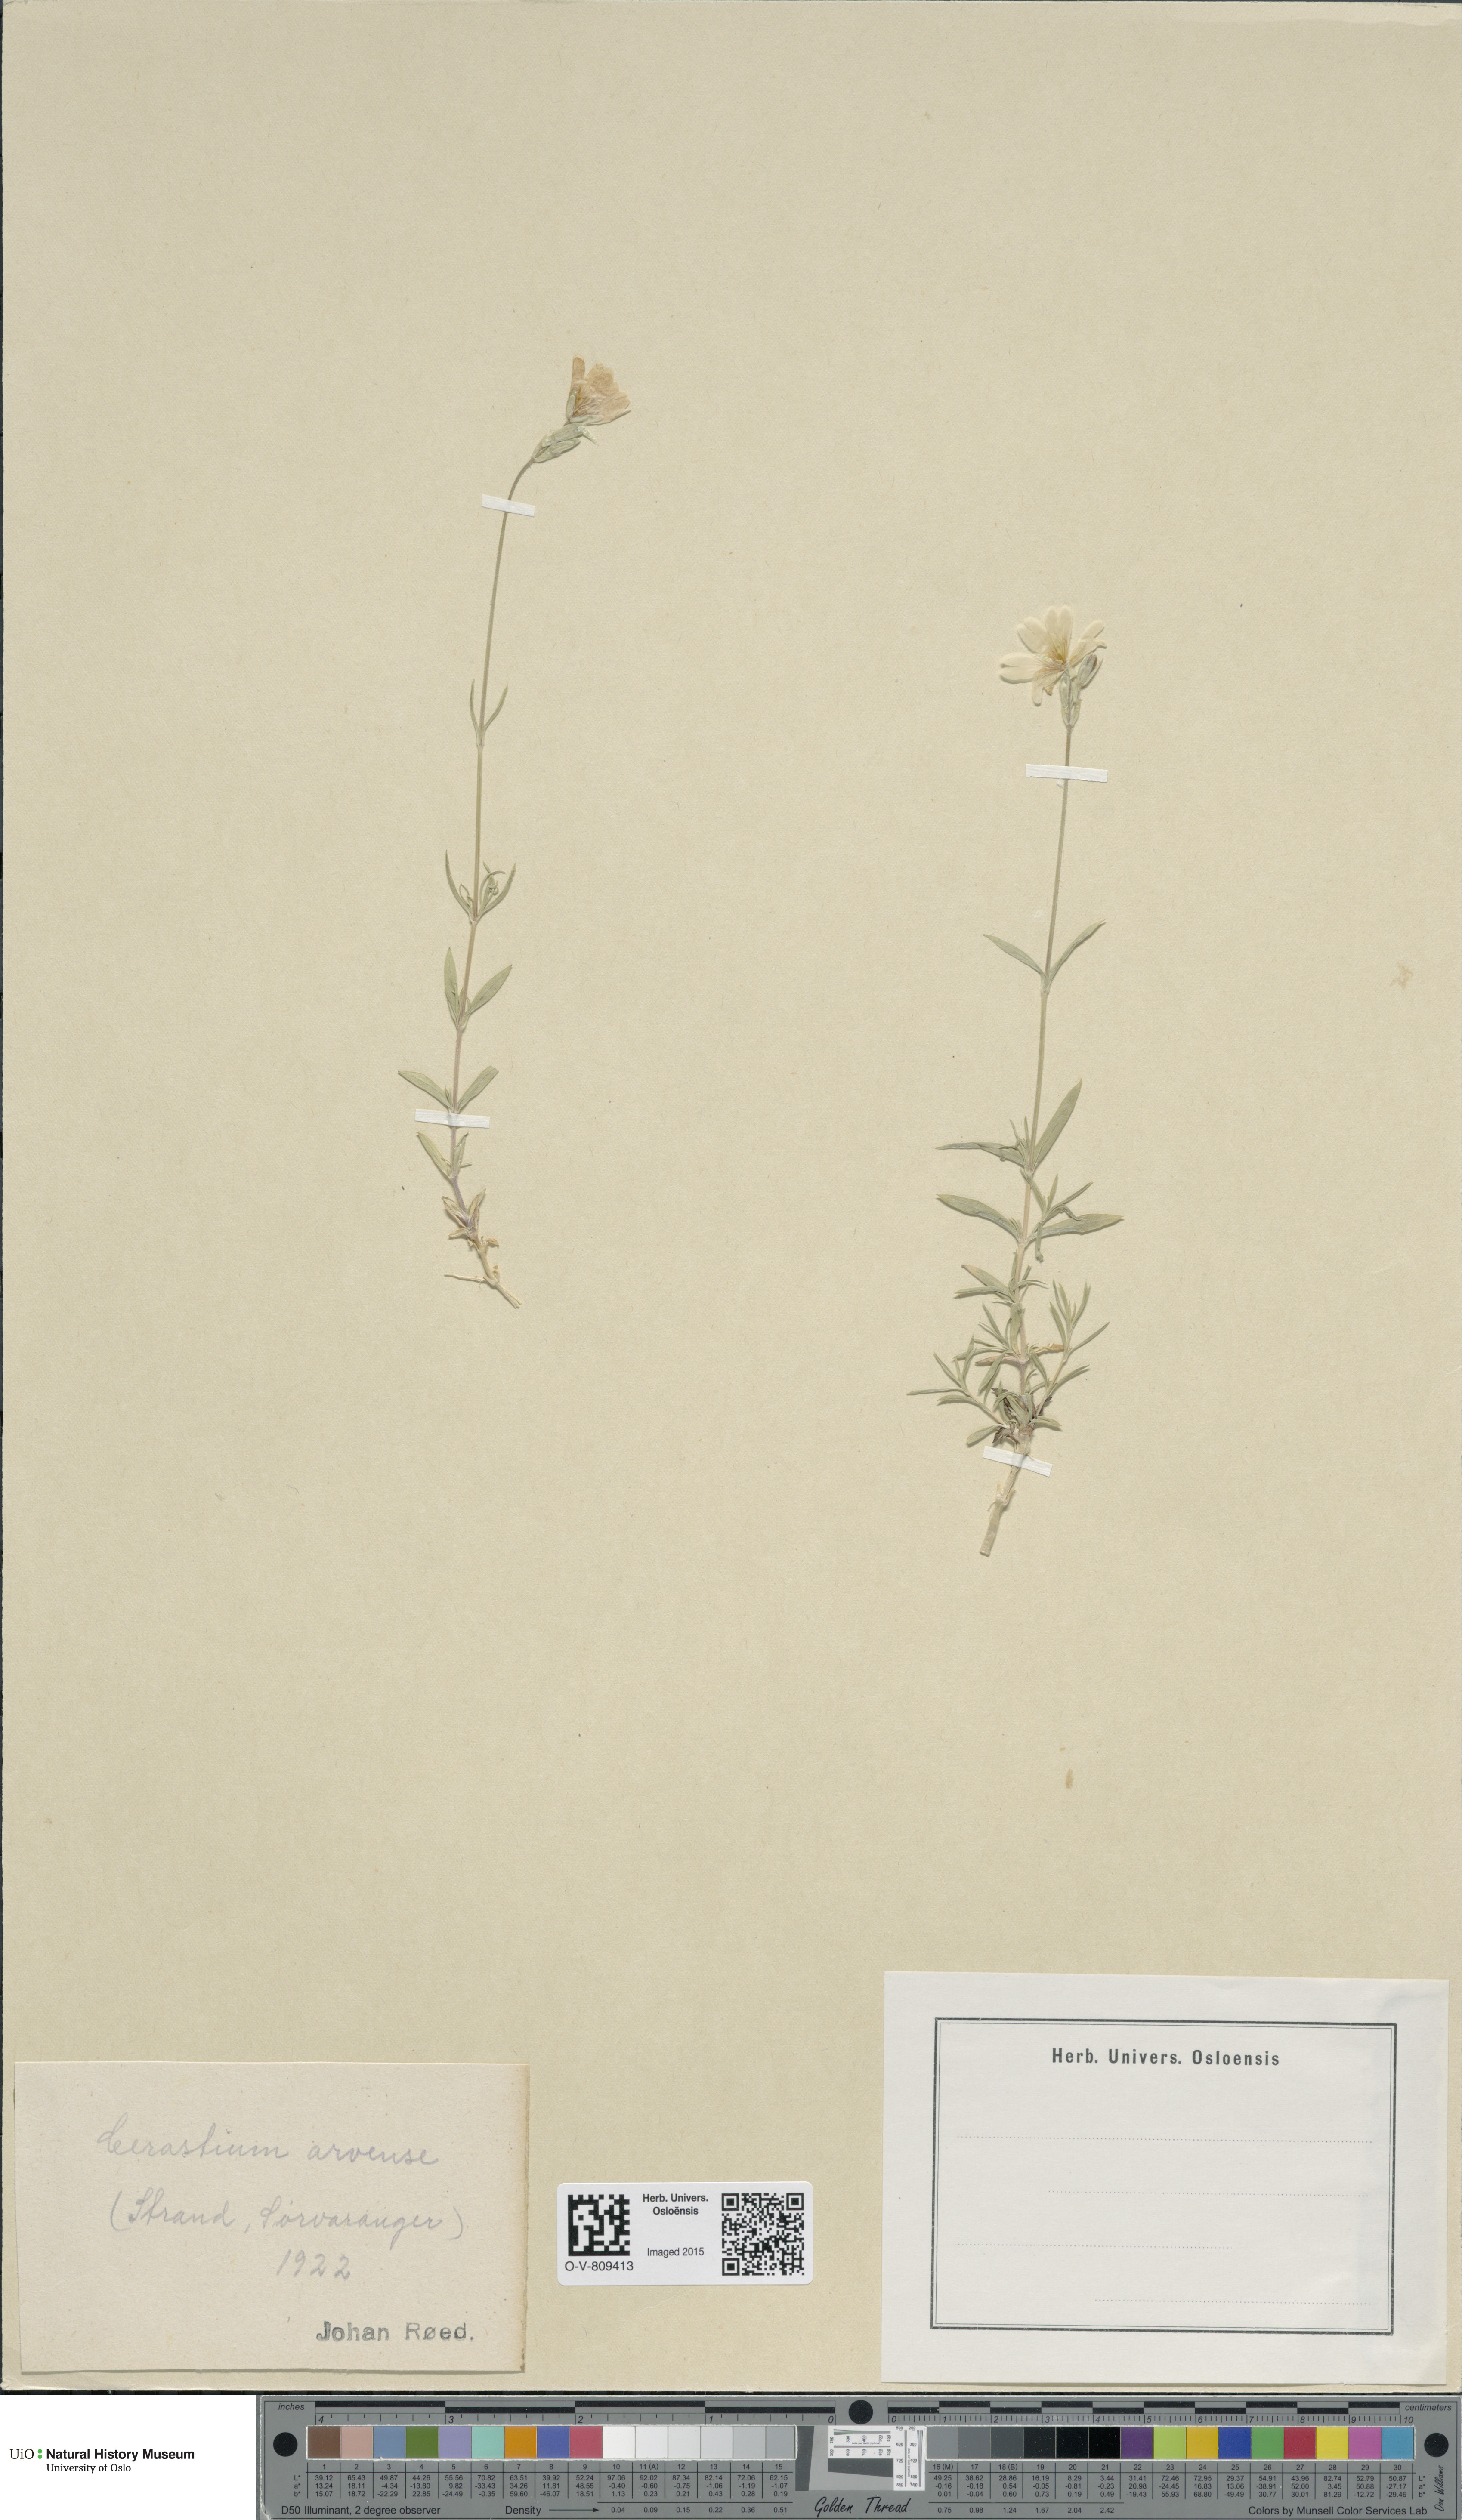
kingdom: Plantae
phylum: Tracheophyta
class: Magnoliopsida
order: Caryophyllales
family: Caryophyllaceae
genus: Cerastium
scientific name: Cerastium arvense
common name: Field mouse-ear
